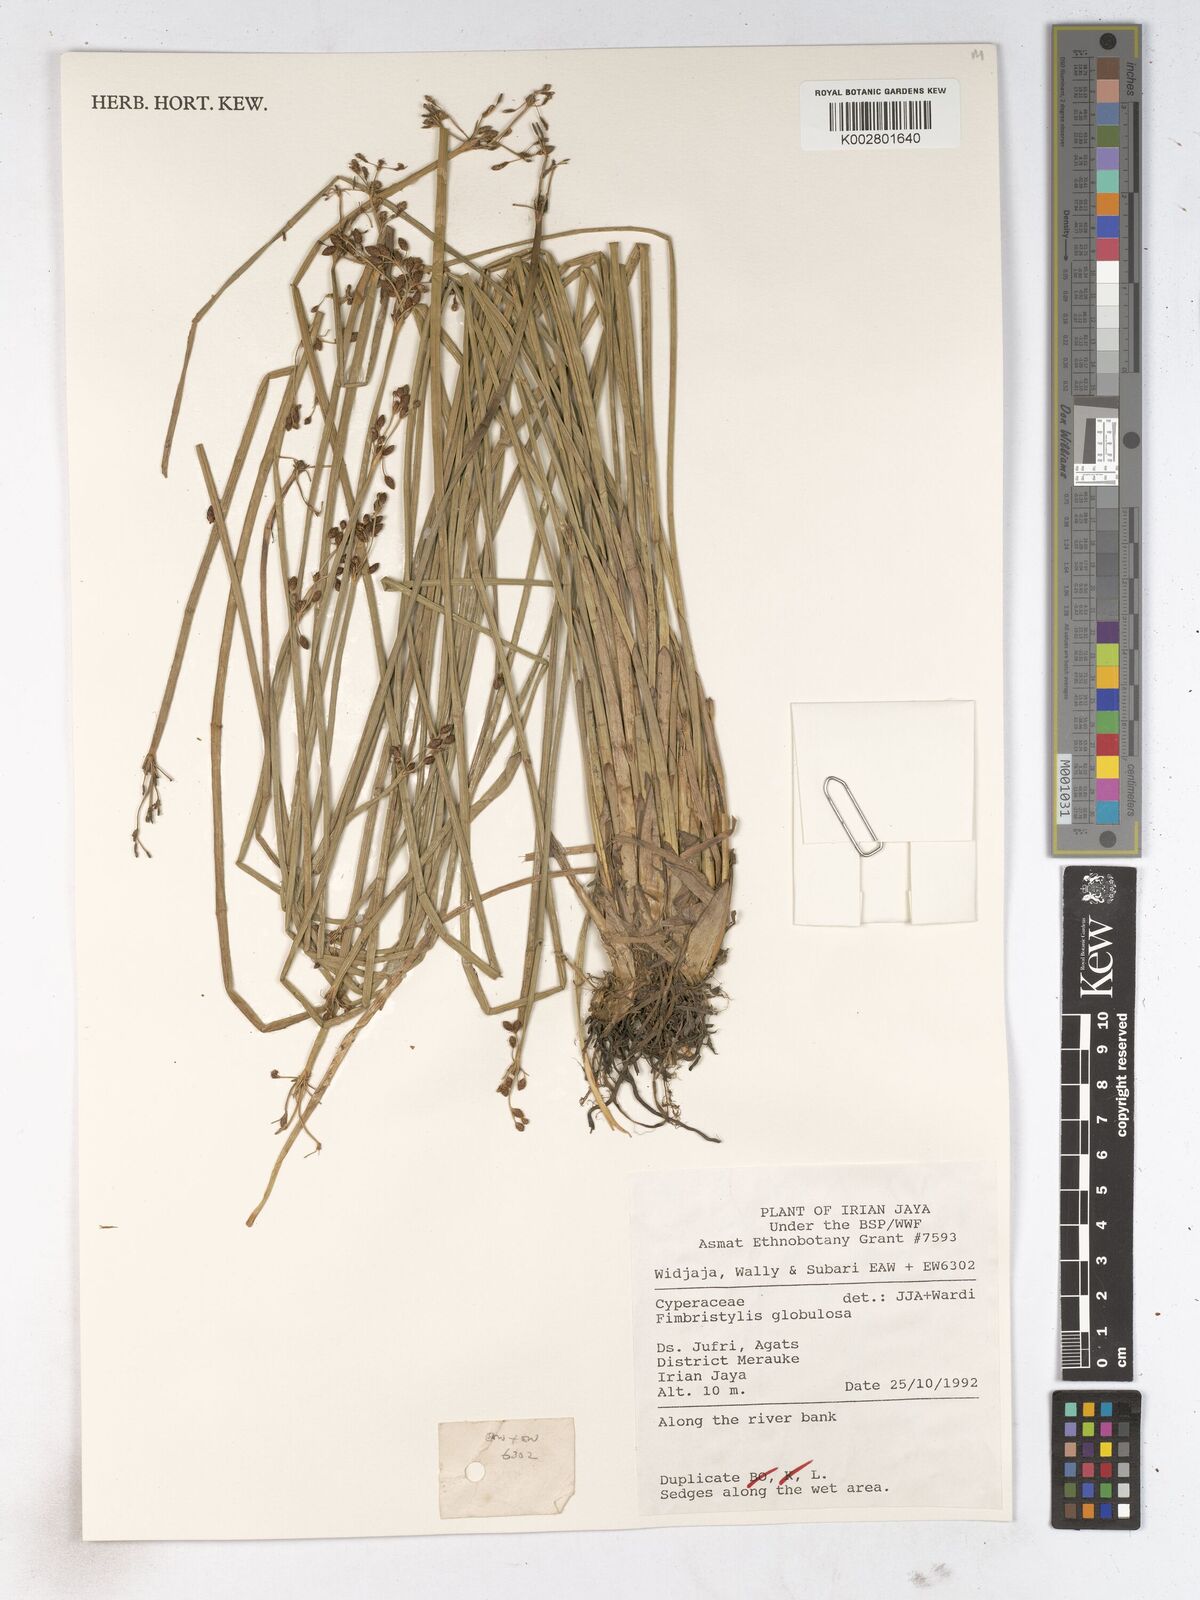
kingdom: Plantae
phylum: Tracheophyta
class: Liliopsida
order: Poales
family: Cyperaceae
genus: Fimbristylis
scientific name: Fimbristylis umbellaris
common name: Globular fimbristylis
